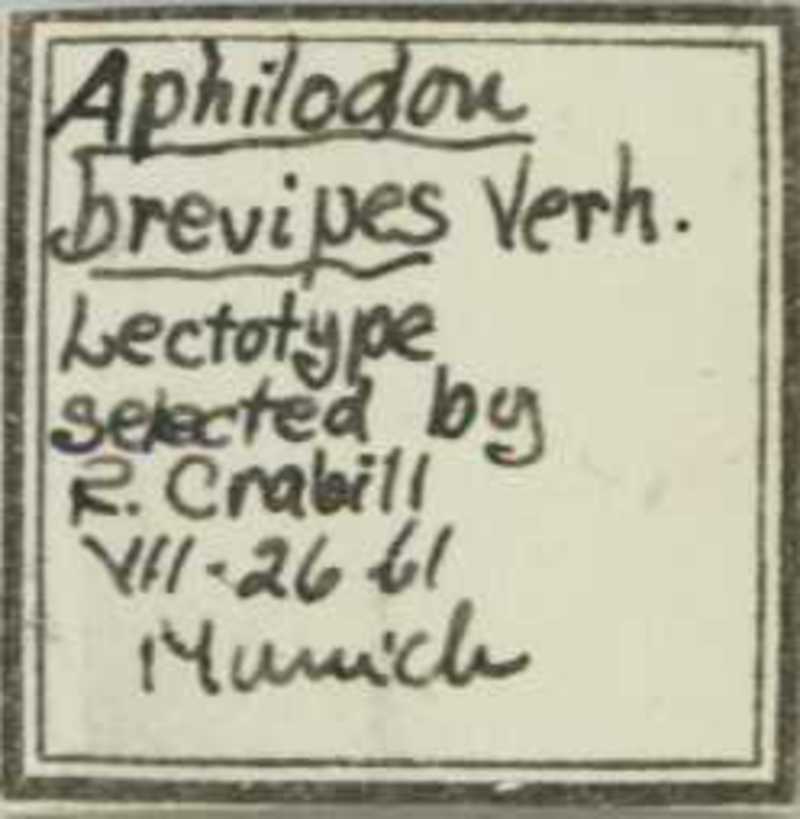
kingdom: Animalia
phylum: Arthropoda
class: Chilopoda
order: Geophilomorpha
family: Aphilodontidae
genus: Aphilodon
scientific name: Aphilodon brevipes
